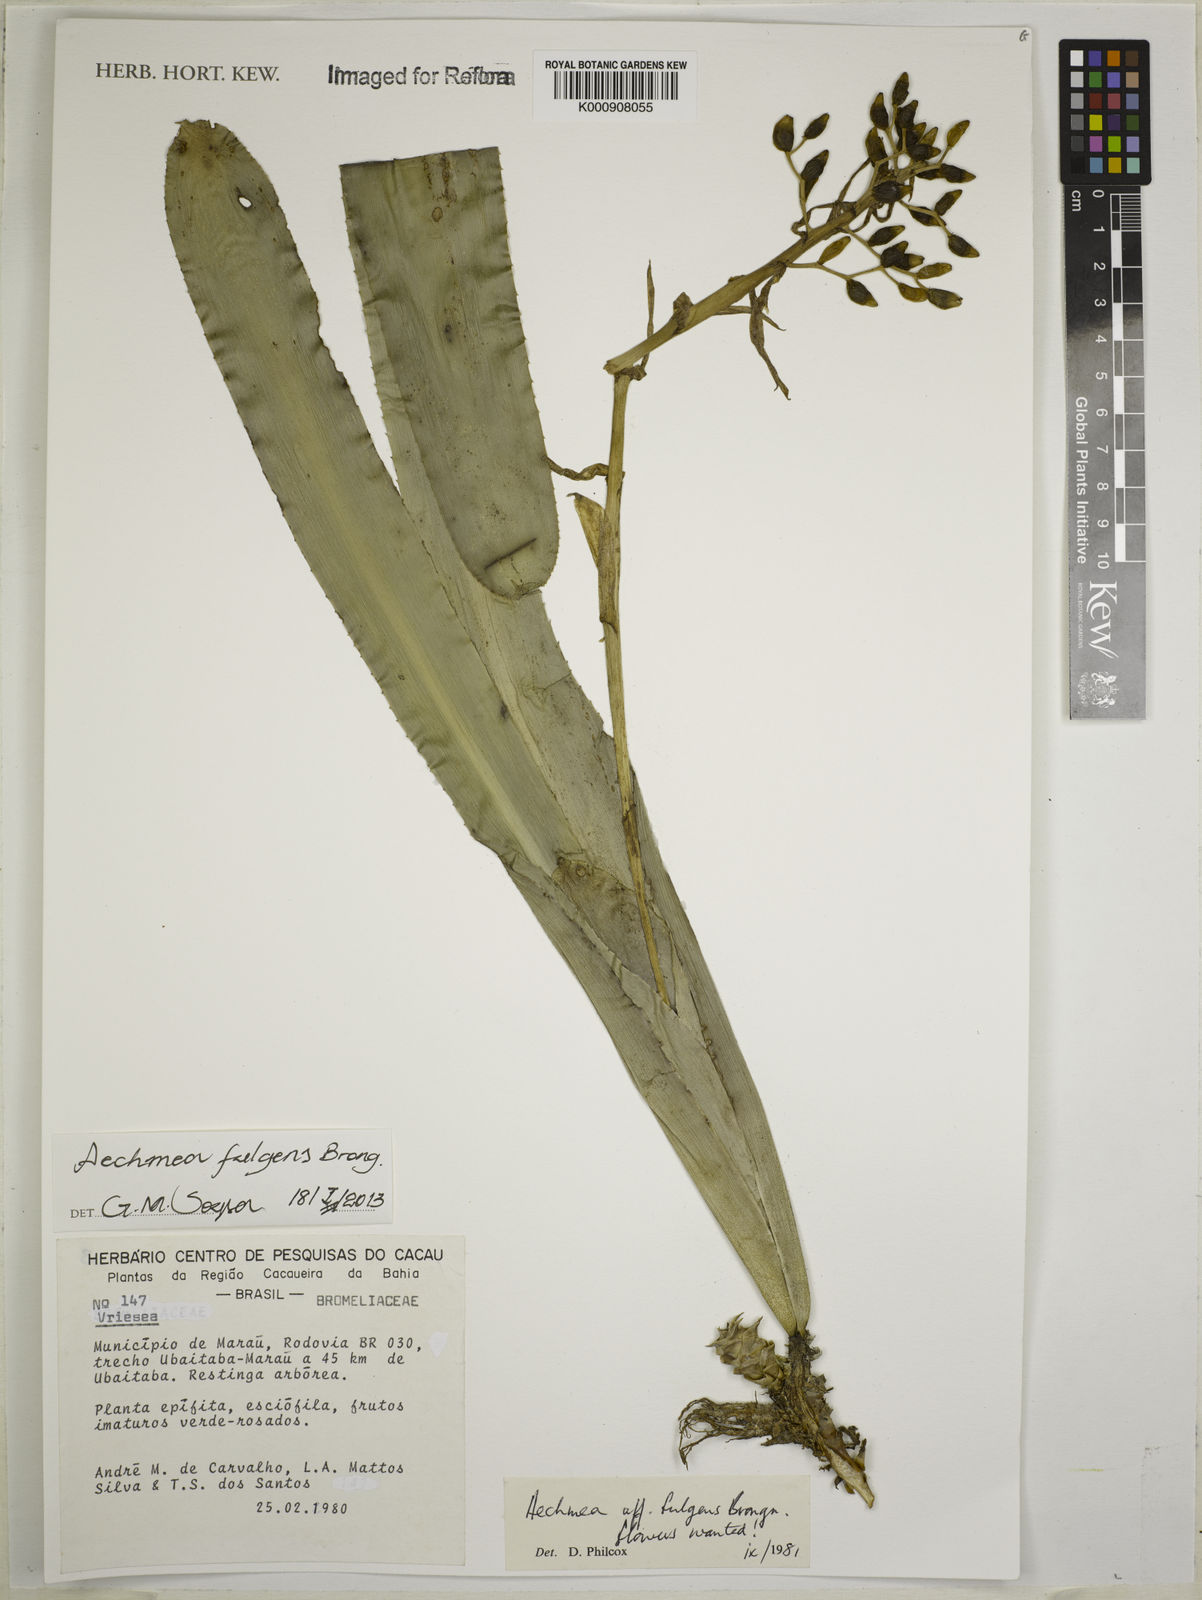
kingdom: Plantae
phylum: Tracheophyta
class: Liliopsida
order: Poales
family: Bromeliaceae
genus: Aechmea
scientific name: Aechmea fulgens
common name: Coralberry
